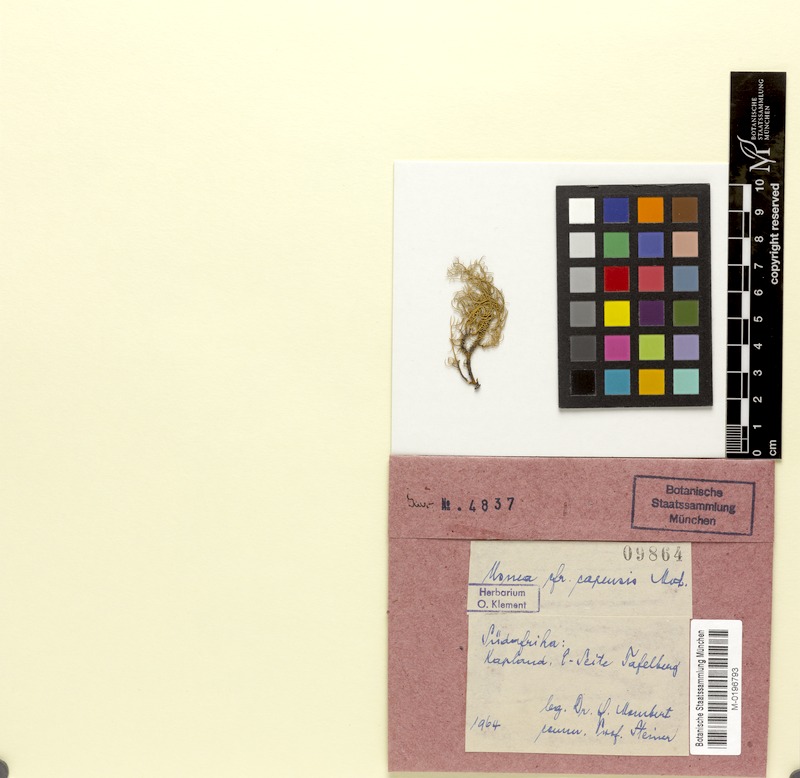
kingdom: Fungi
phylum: Ascomycota
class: Lecanoromycetes
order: Lecanorales
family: Parmeliaceae
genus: Usnea
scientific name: Usnea austroafricana
